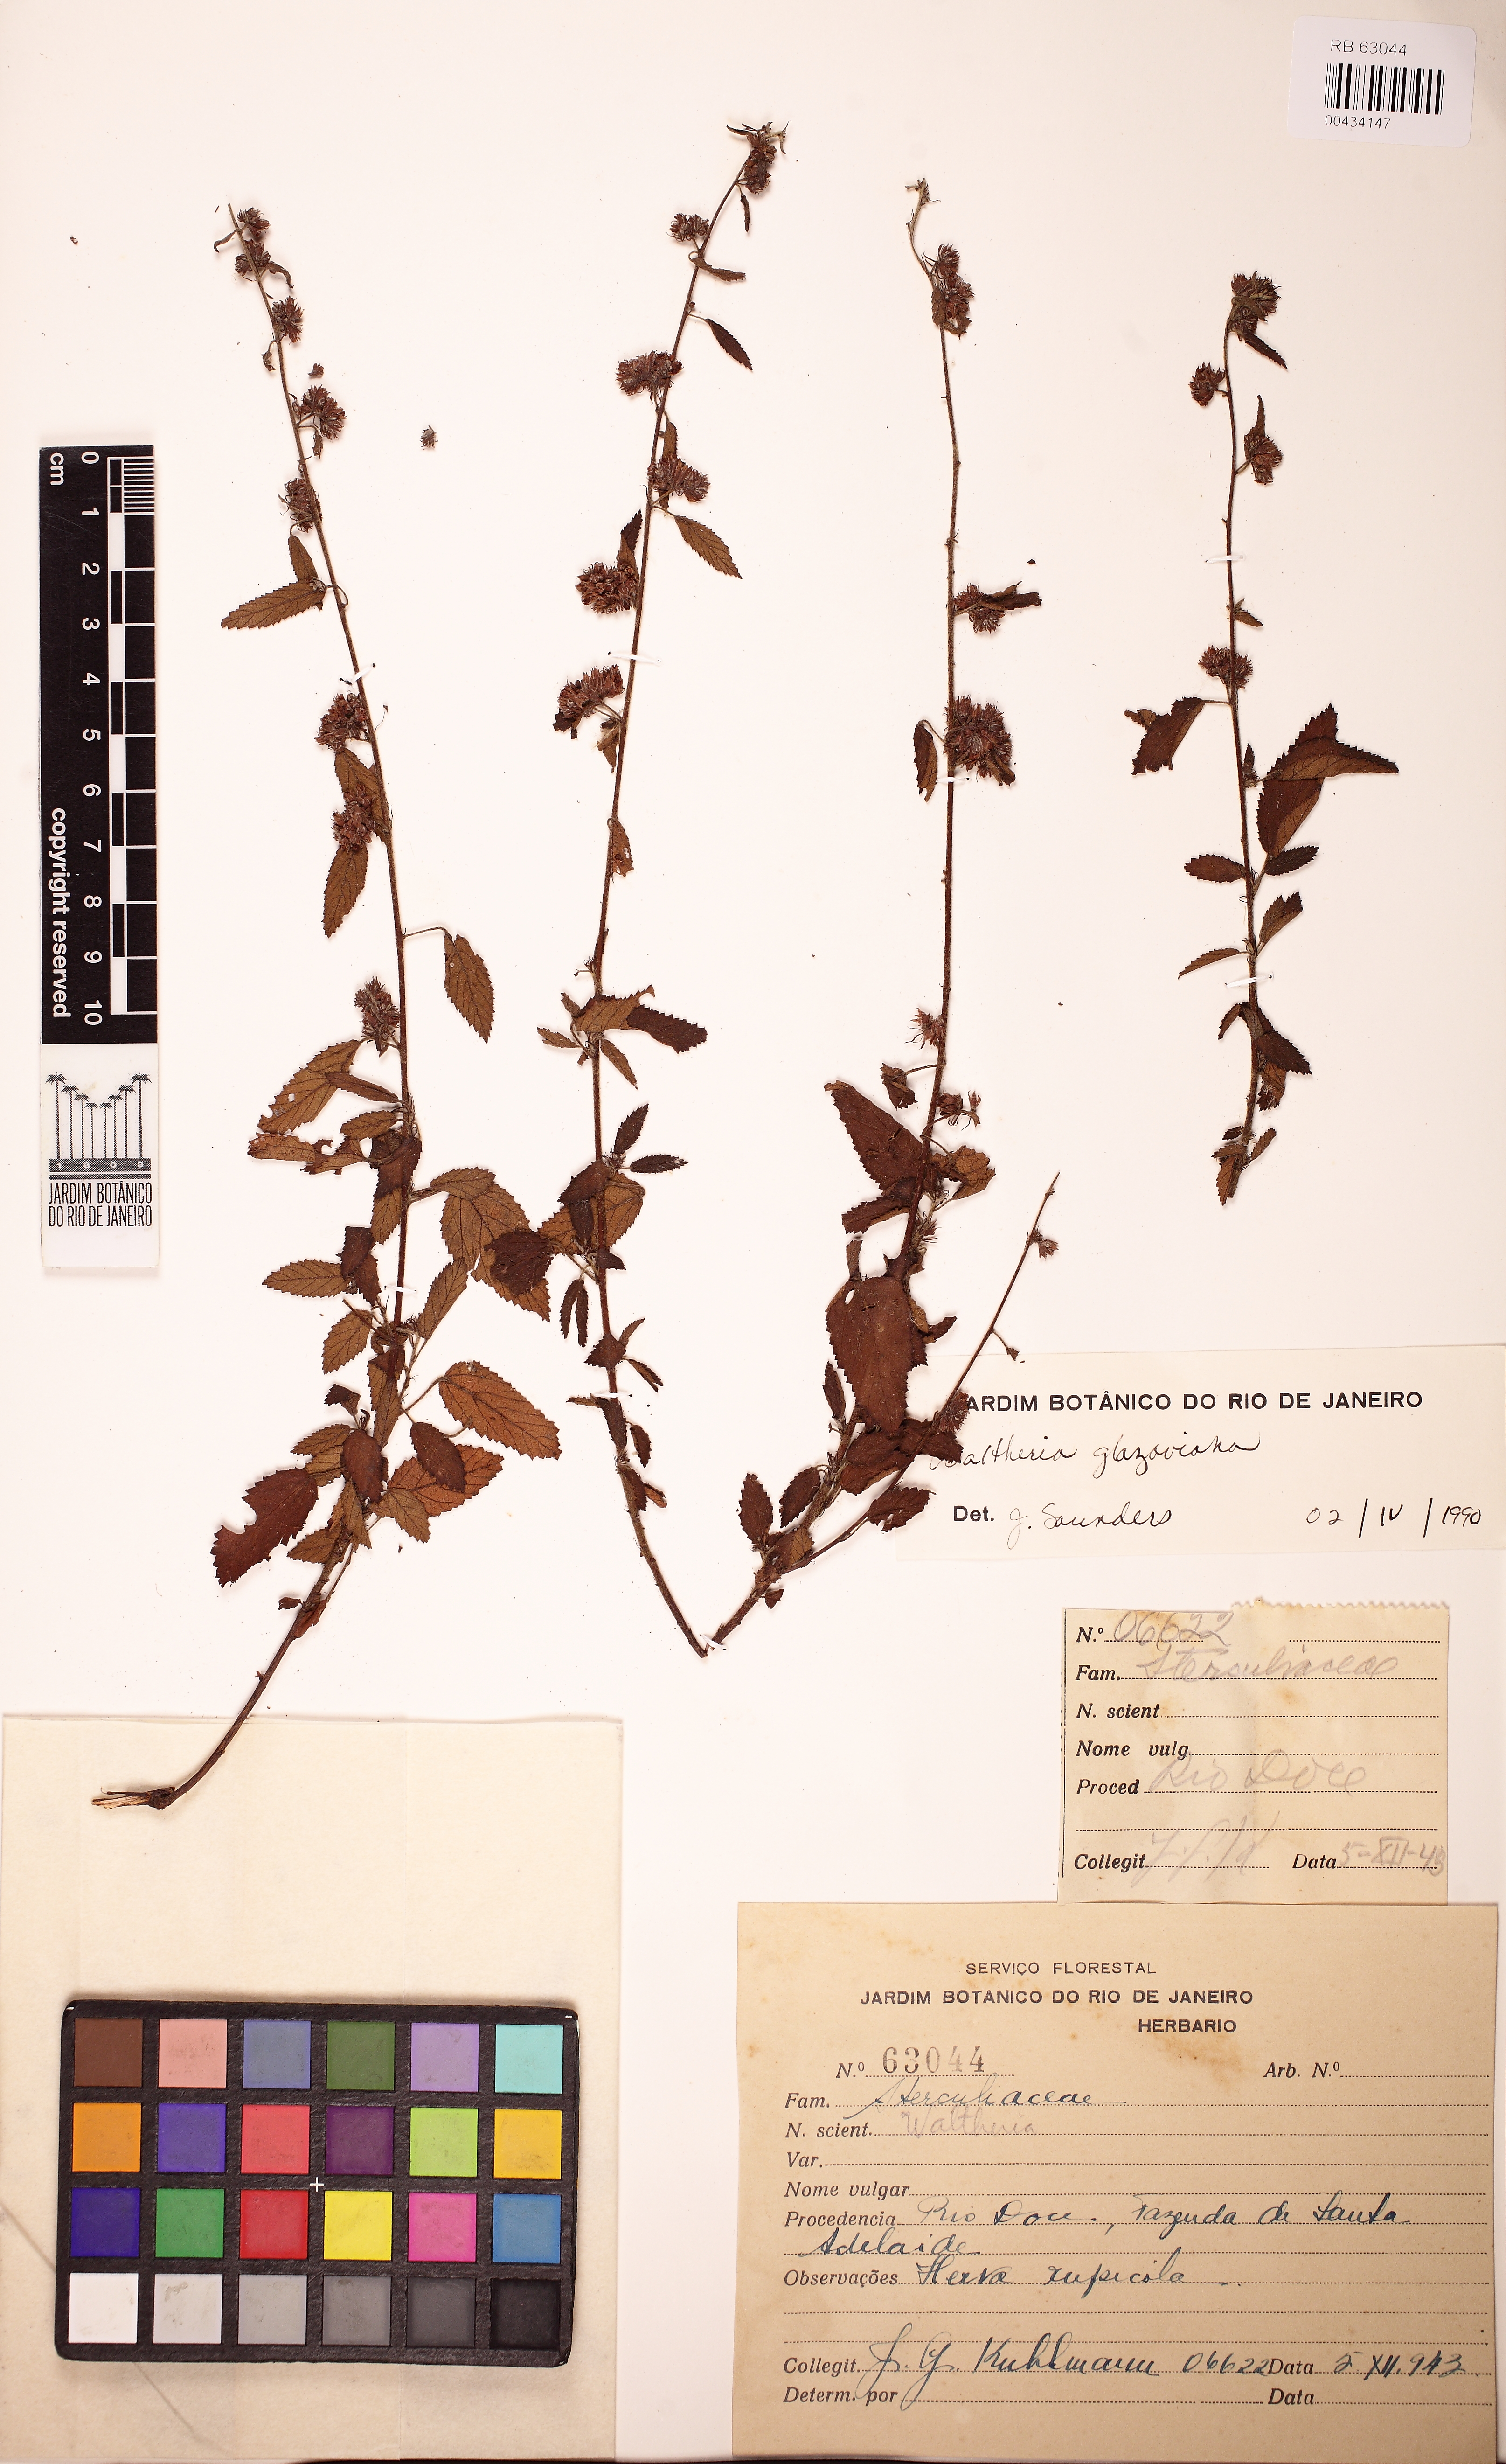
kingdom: Plantae
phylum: Tracheophyta
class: Magnoliopsida
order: Malvales
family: Malvaceae
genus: Waltheria
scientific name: Waltheria glazioviana
